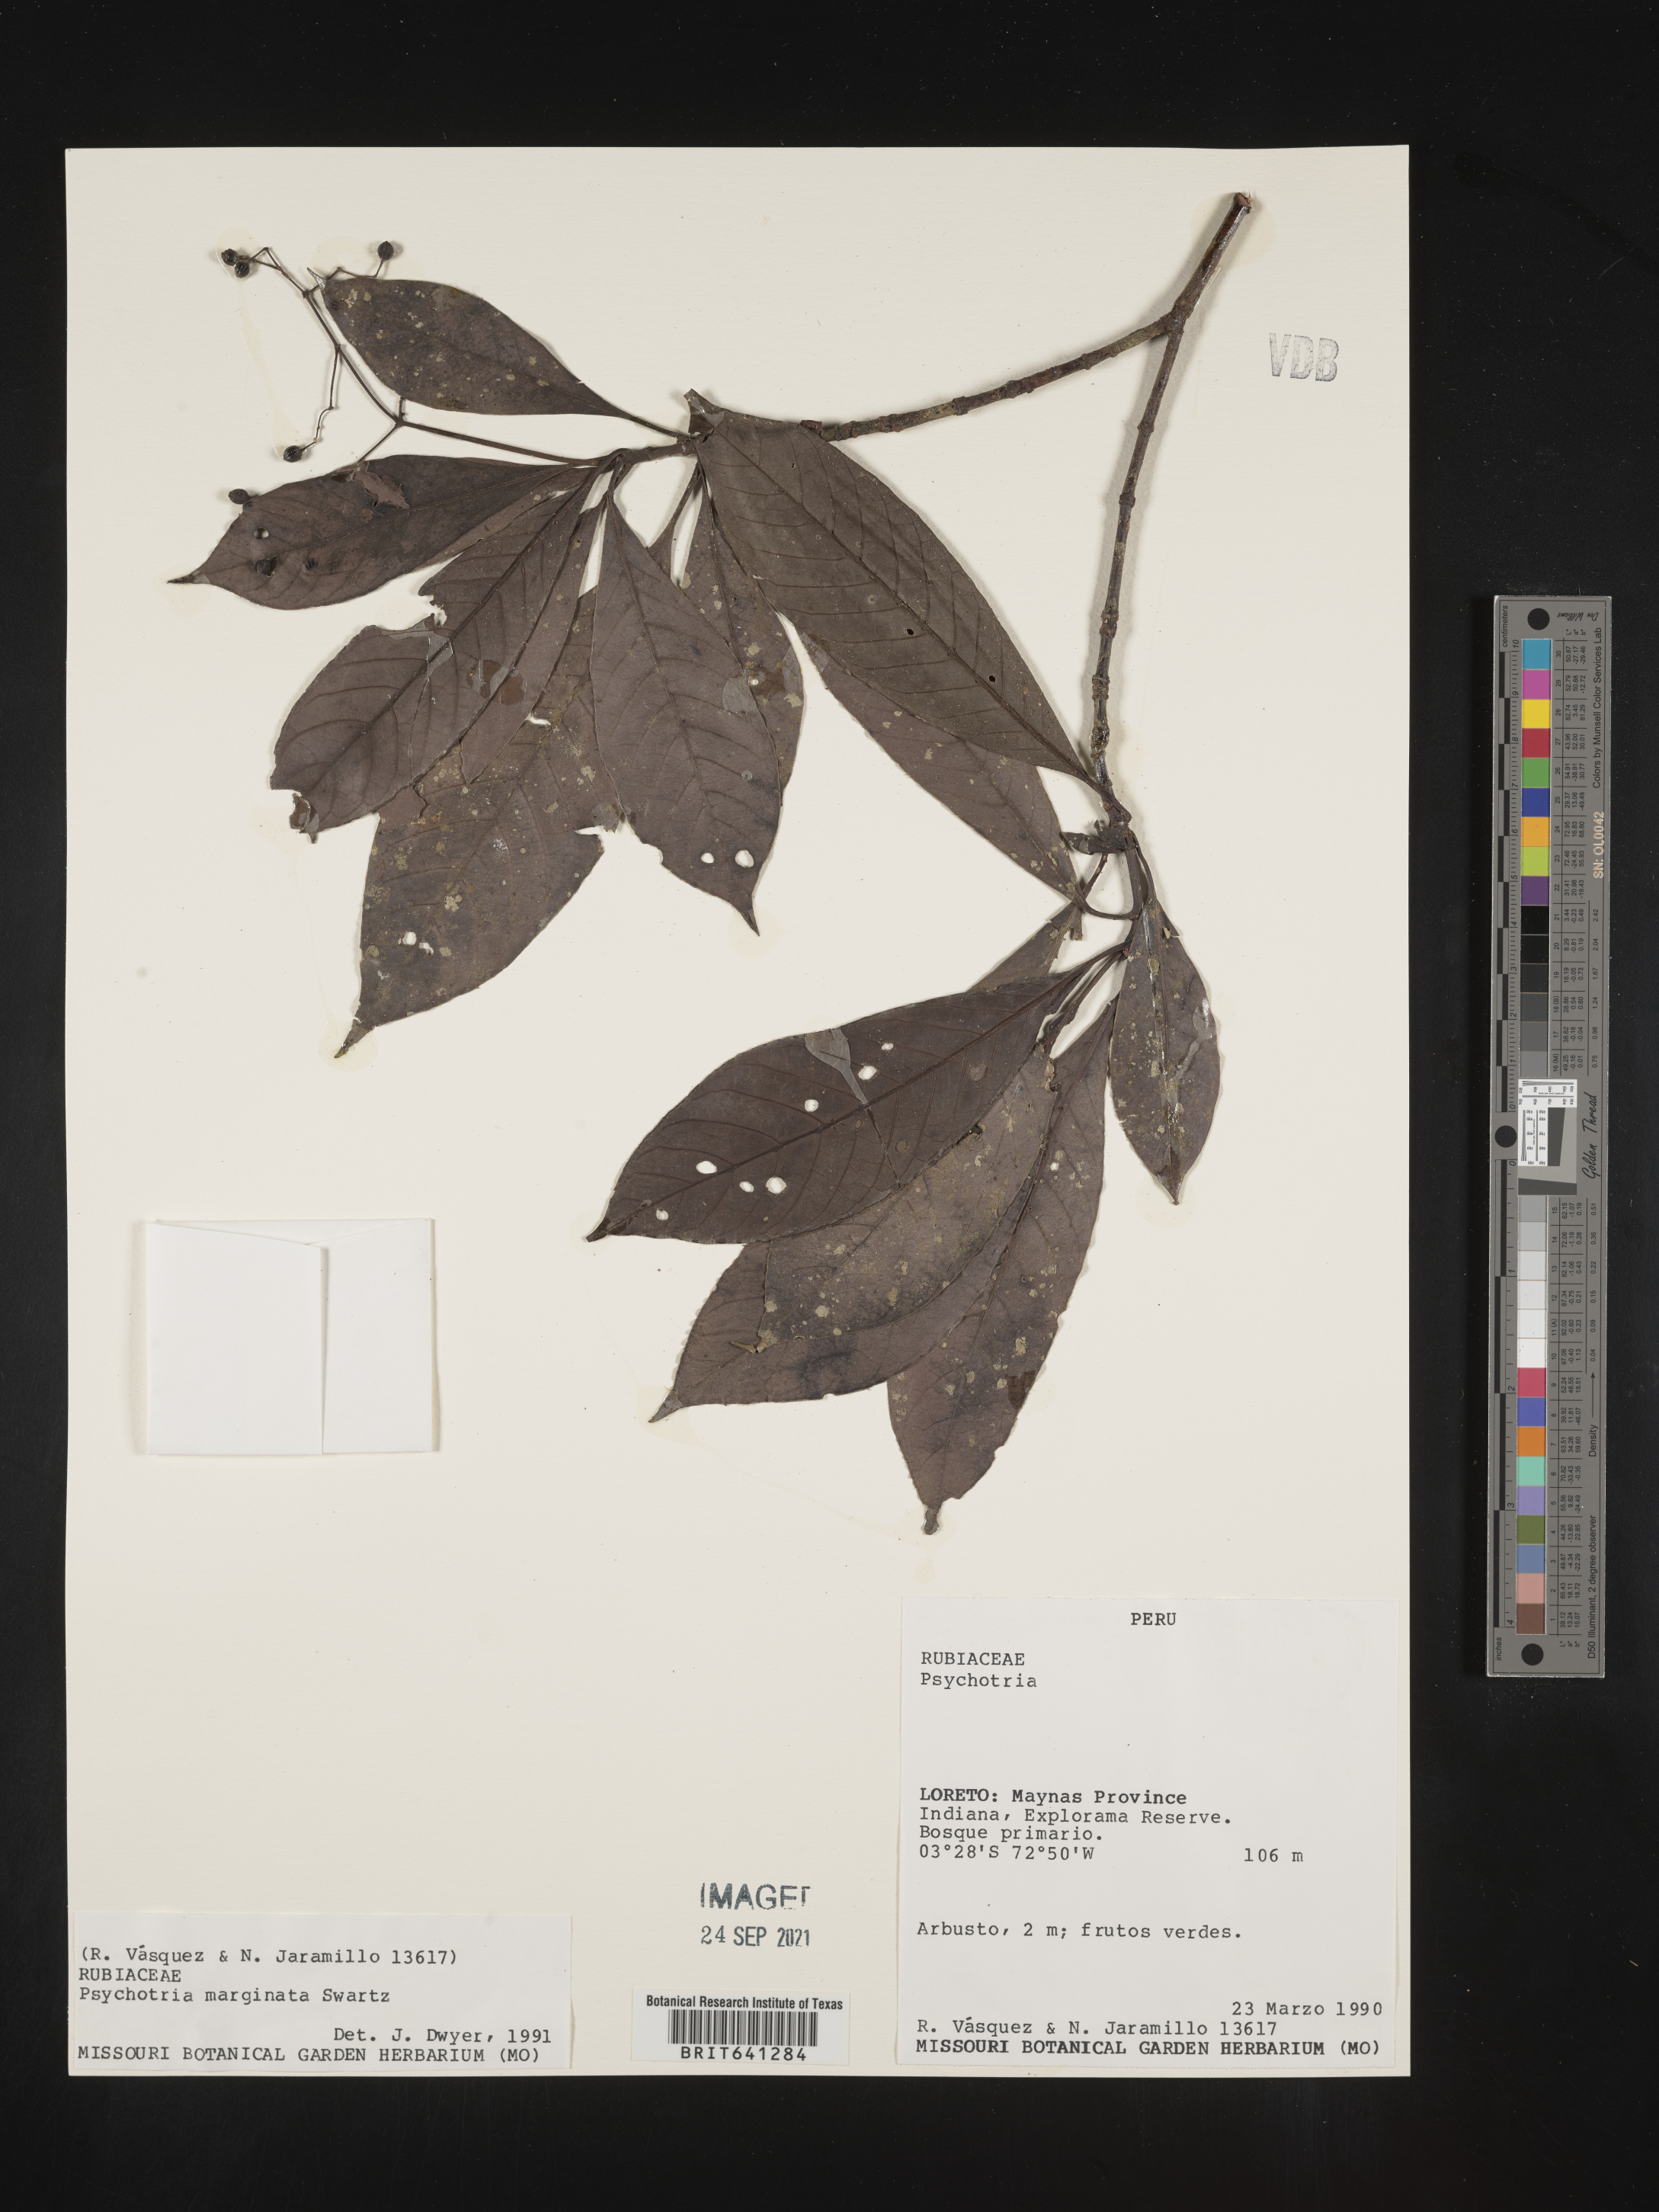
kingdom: Plantae
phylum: Tracheophyta
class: Magnoliopsida
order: Gentianales
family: Rubiaceae
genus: Psychotria
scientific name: Psychotria
